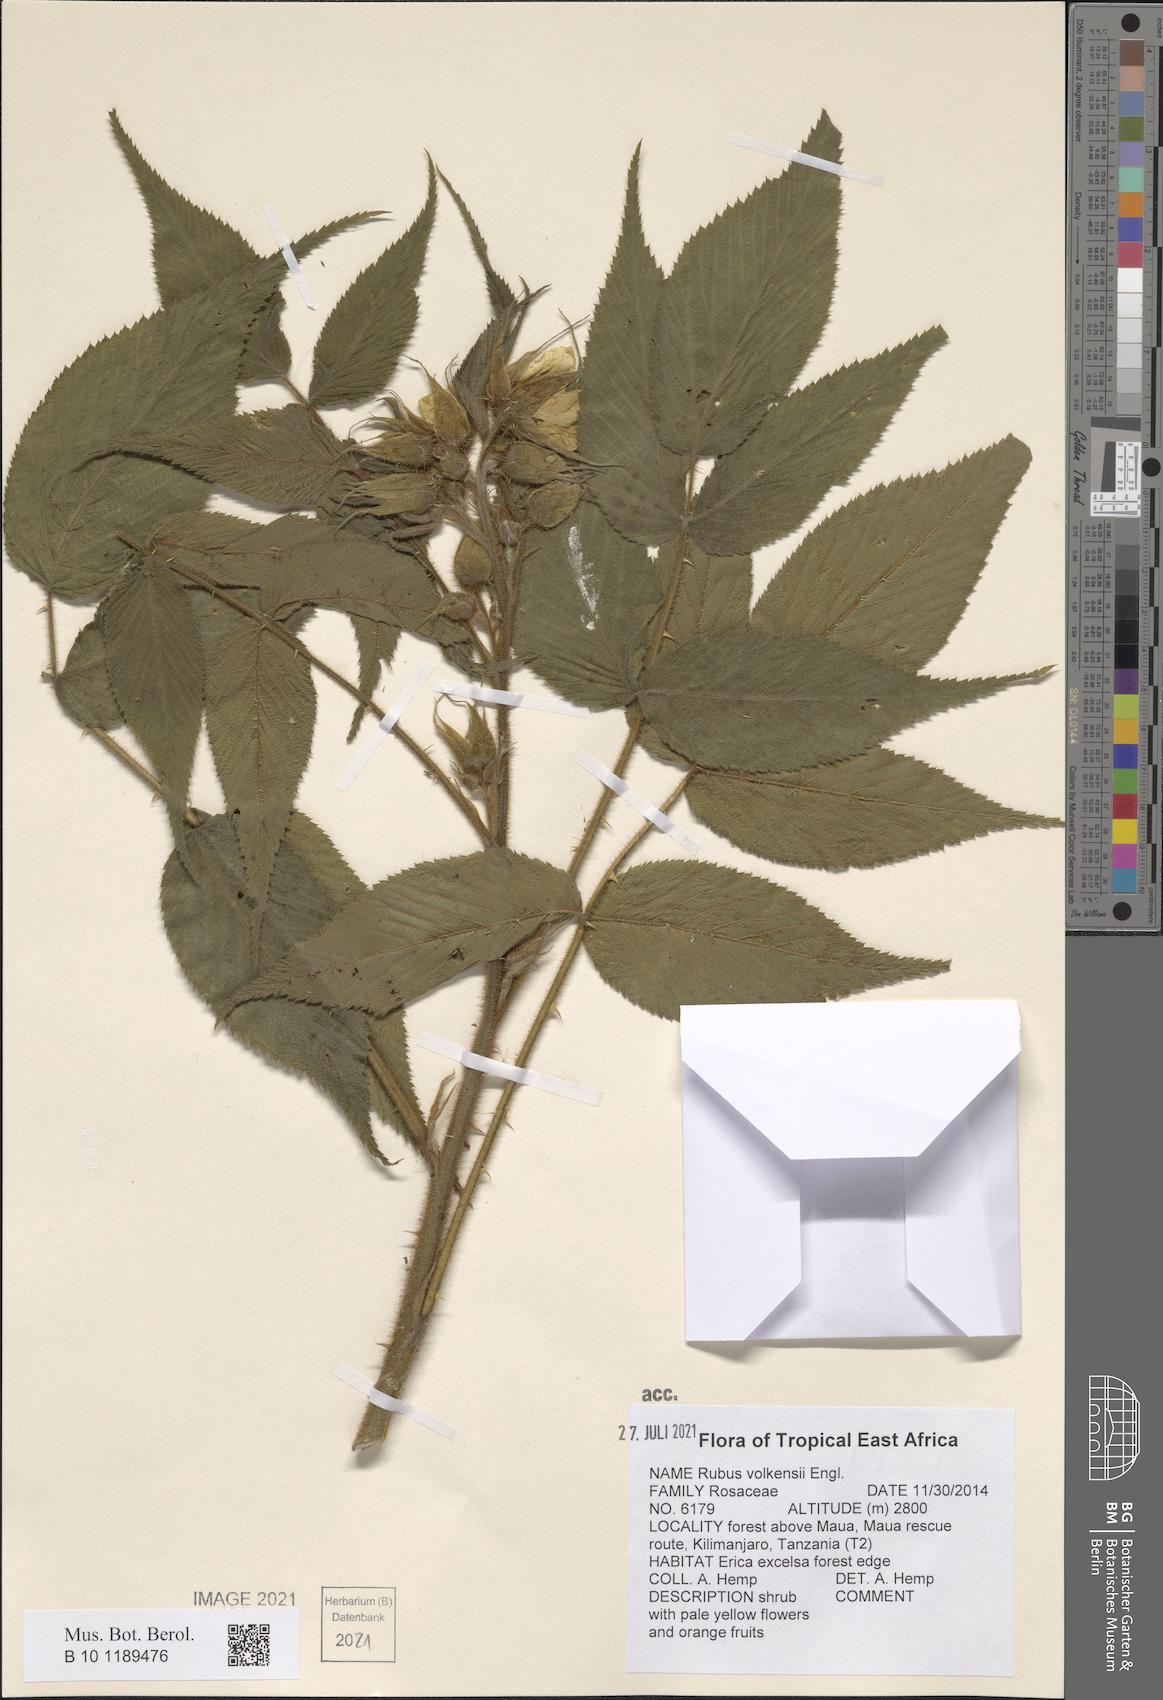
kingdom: Plantae
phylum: Tracheophyta
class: Magnoliopsida
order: Rosales
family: Rosaceae
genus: Rubus
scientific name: Rubus volkensii
